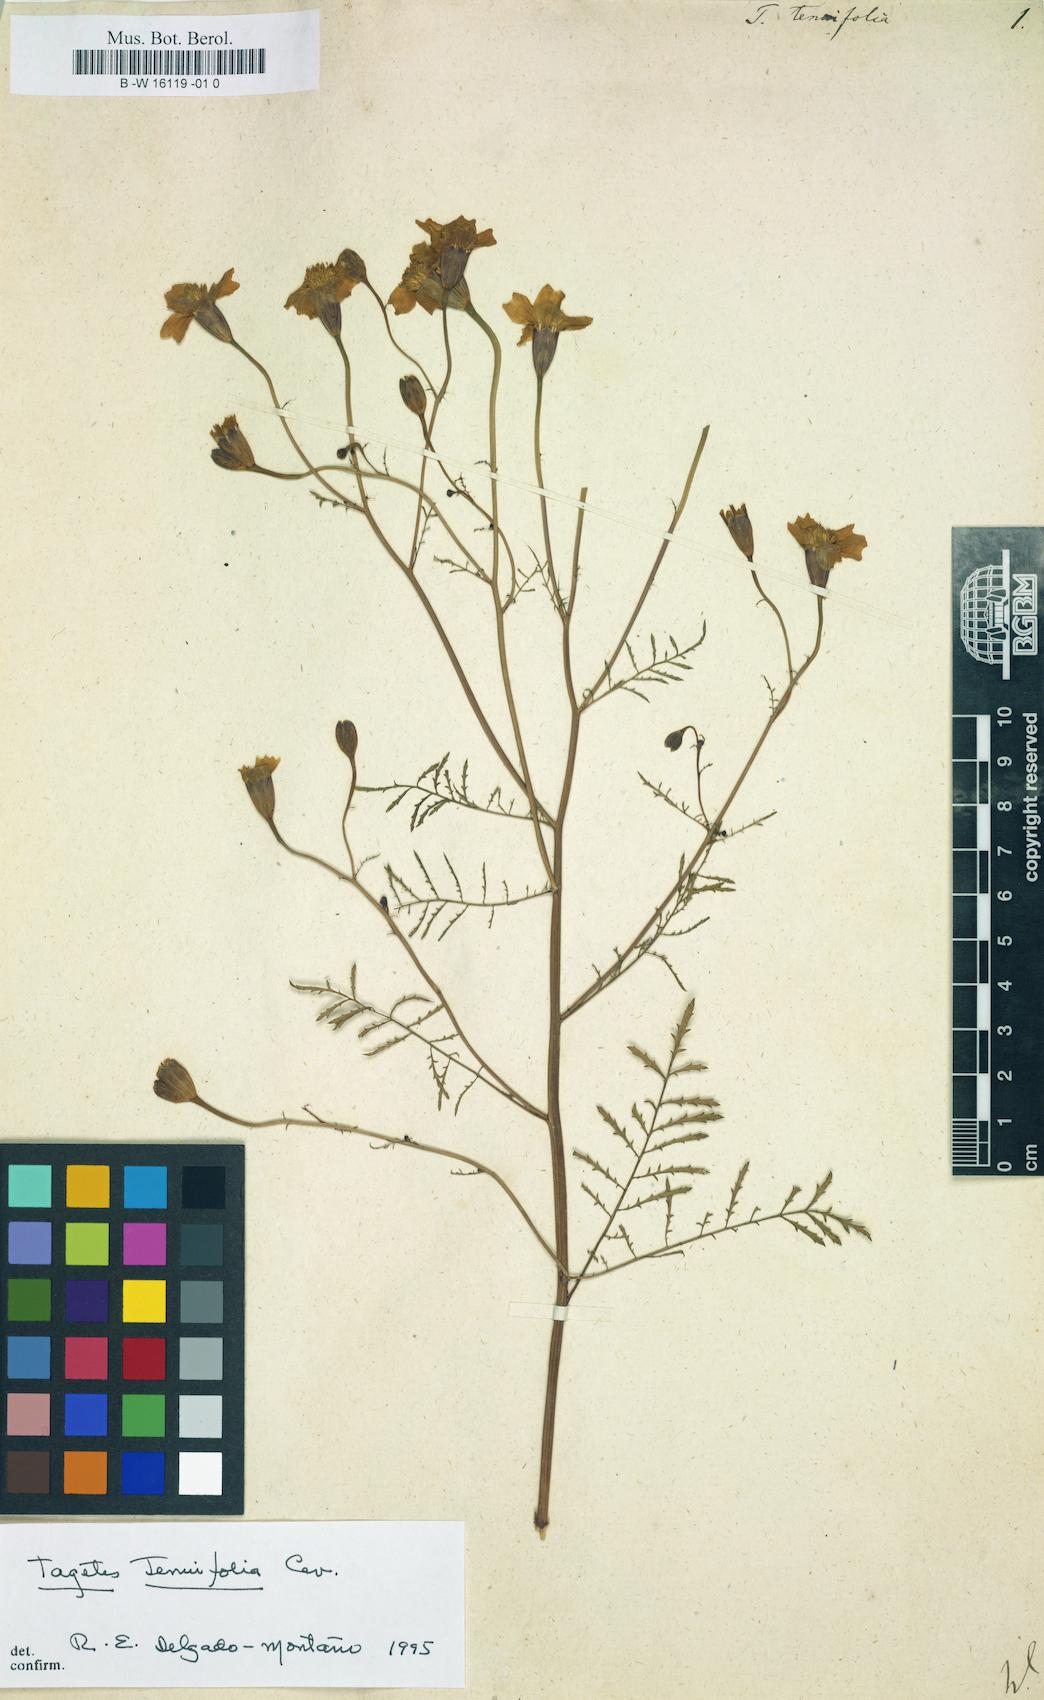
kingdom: Plantae
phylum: Tracheophyta
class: Magnoliopsida
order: Asterales
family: Asteraceae
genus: Tagetes
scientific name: Tagetes tenuifolia
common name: Signet marigold
